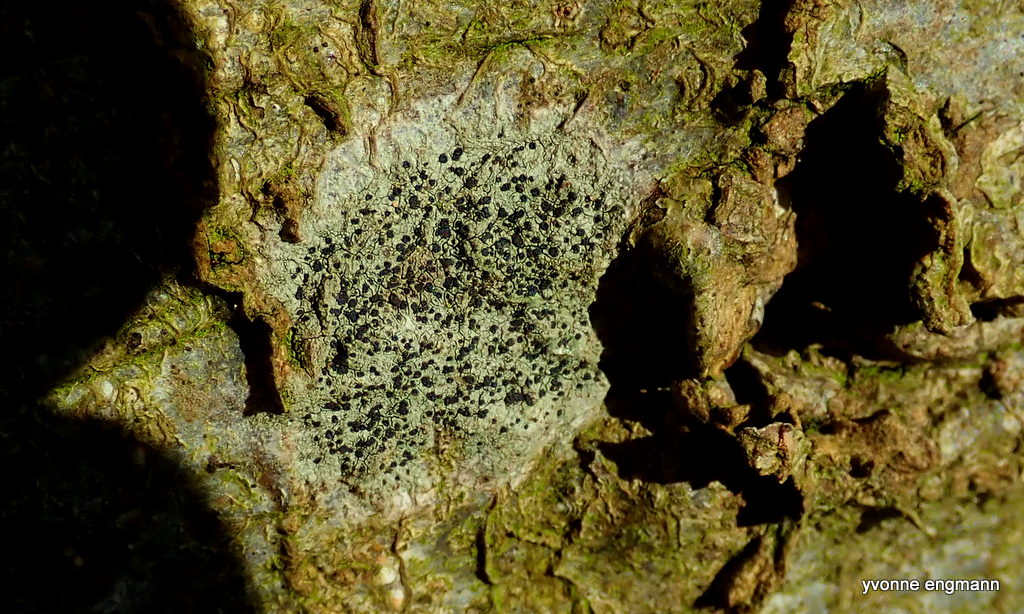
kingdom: Fungi
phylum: Ascomycota
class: Lecanoromycetes
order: Lecanorales
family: Lecanoraceae
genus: Lecidella
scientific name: Lecidella elaeochroma
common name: grågrøn skivelav
